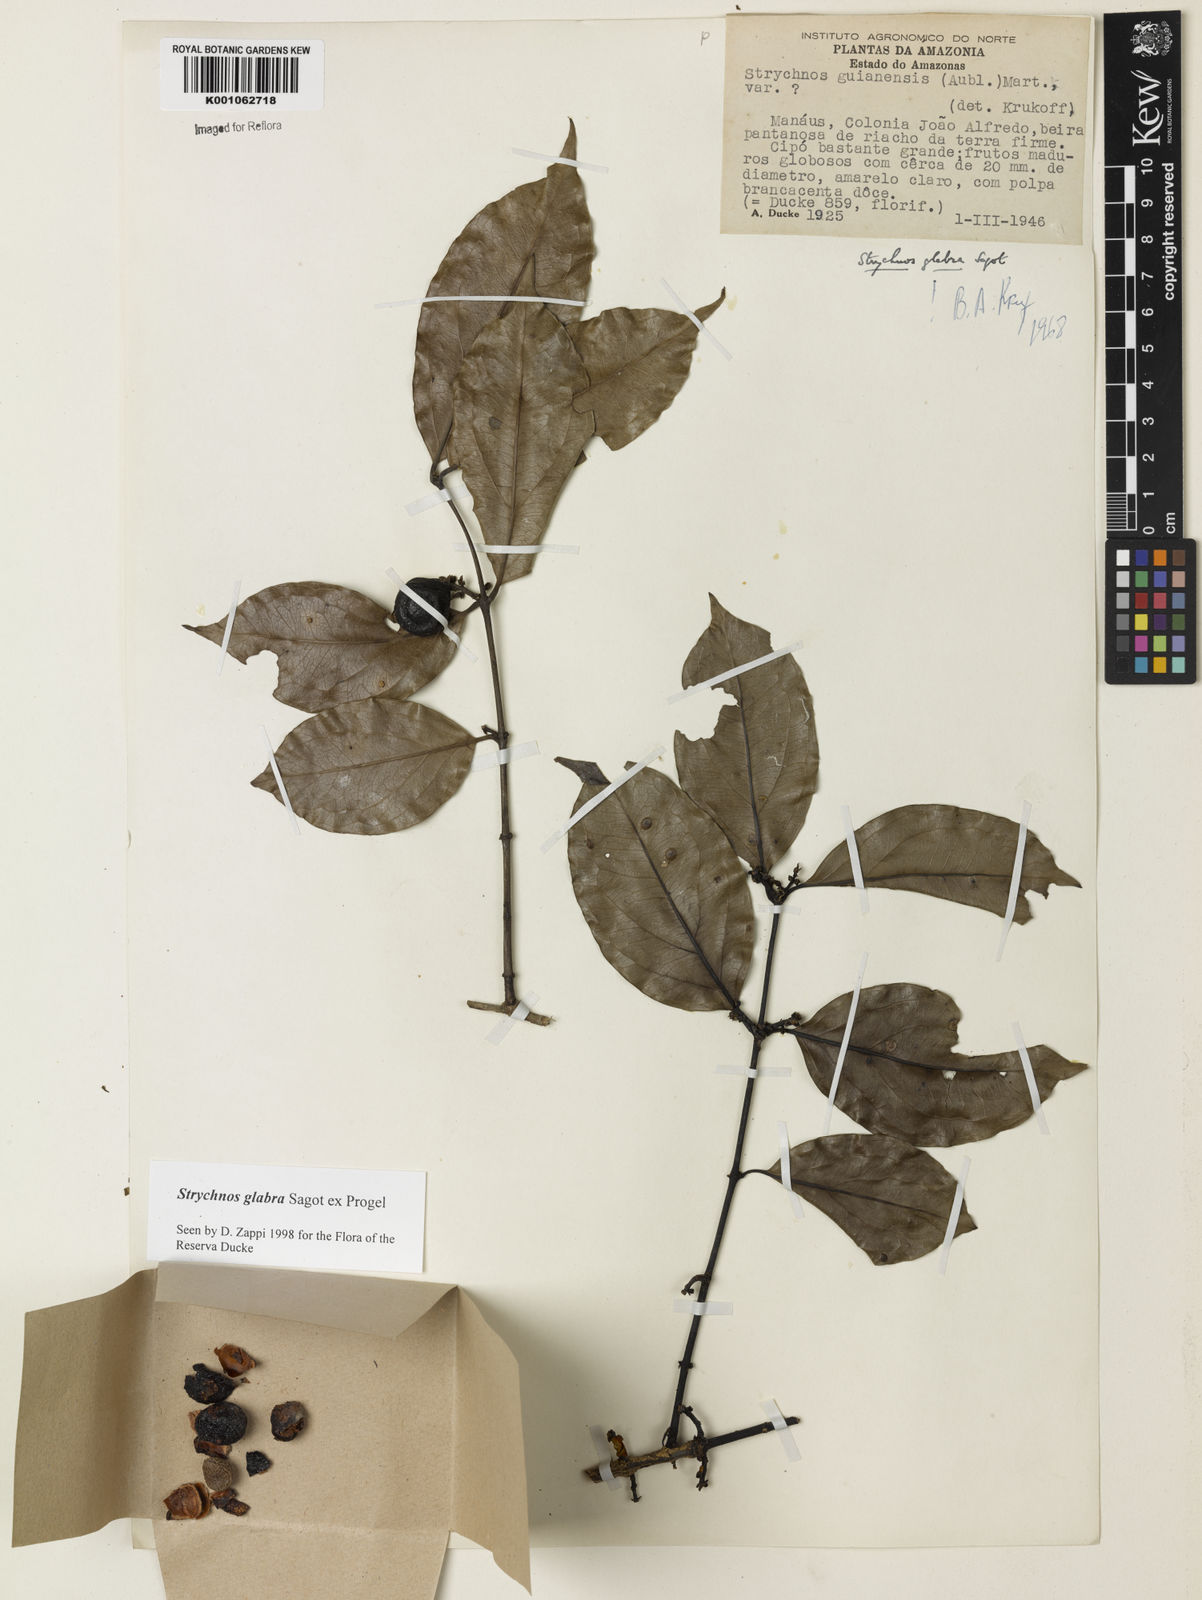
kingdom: Plantae
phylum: Tracheophyta
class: Magnoliopsida
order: Gentianales
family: Loganiaceae
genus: Strychnos
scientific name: Strychnos glabra
